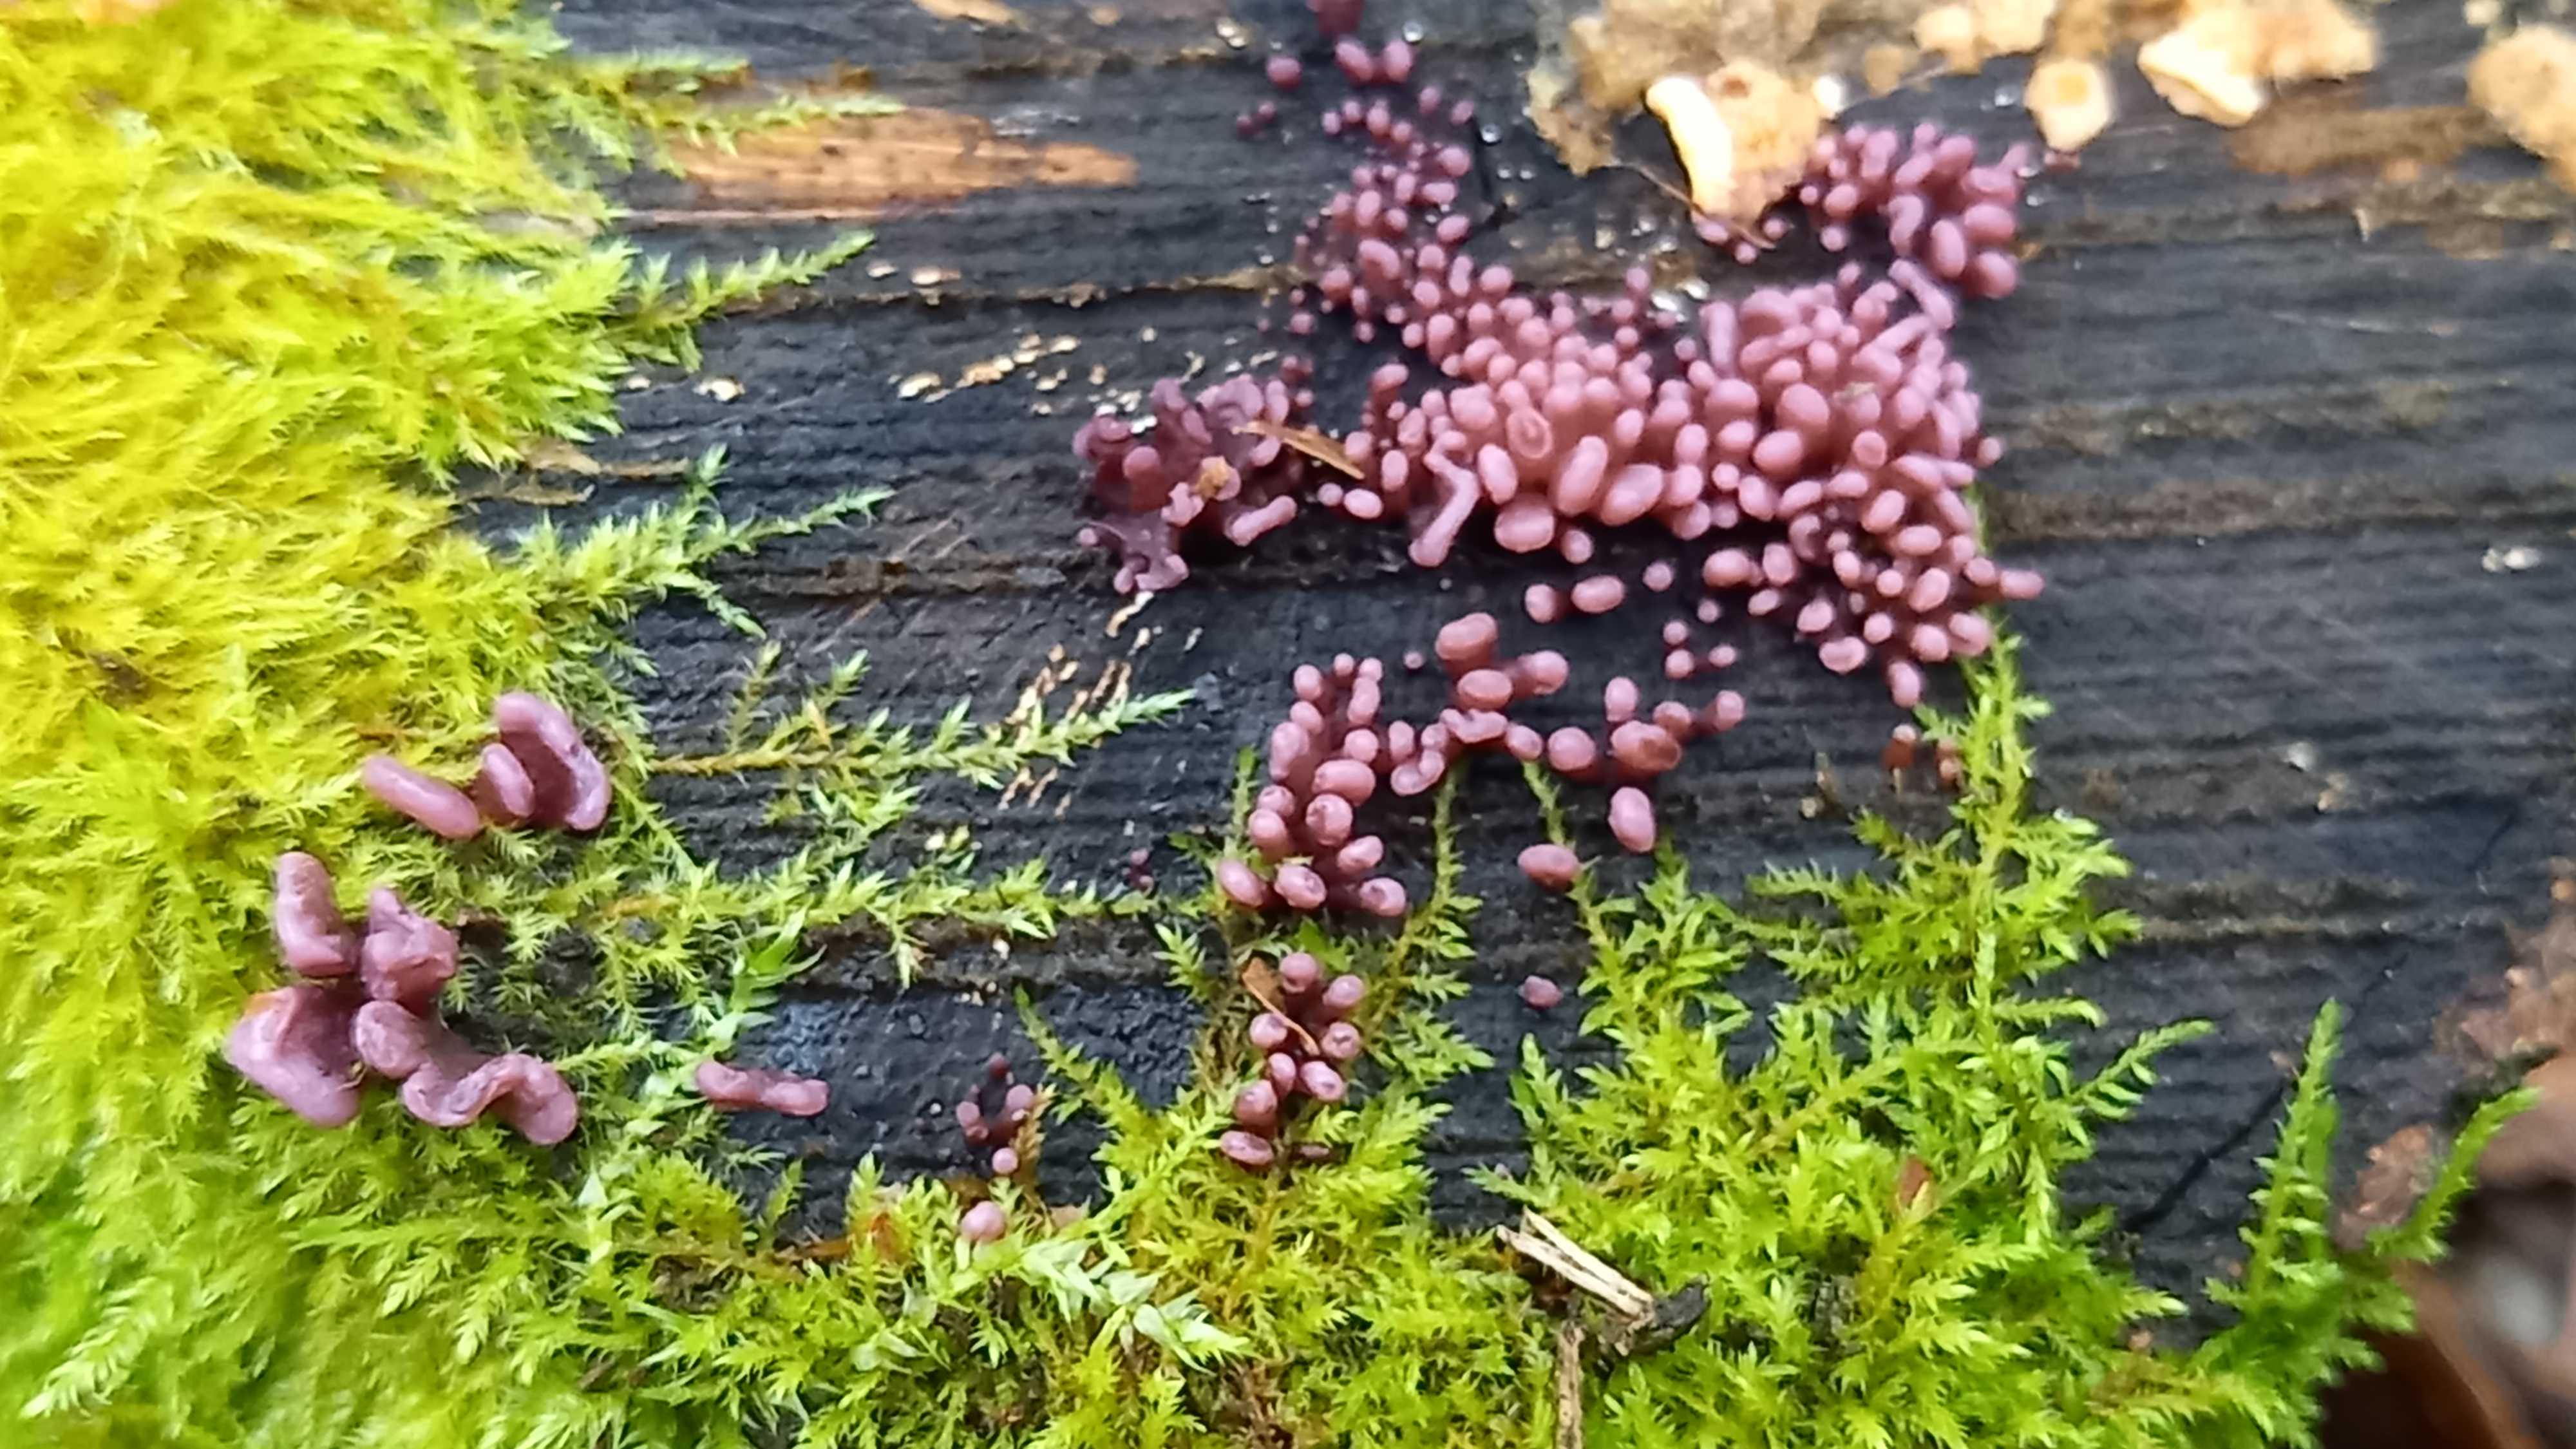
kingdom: Fungi
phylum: Ascomycota
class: Leotiomycetes
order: Helotiales
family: Gelatinodiscaceae
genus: Ascocoryne
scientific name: Ascocoryne sarcoides
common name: rødlilla sejskive
